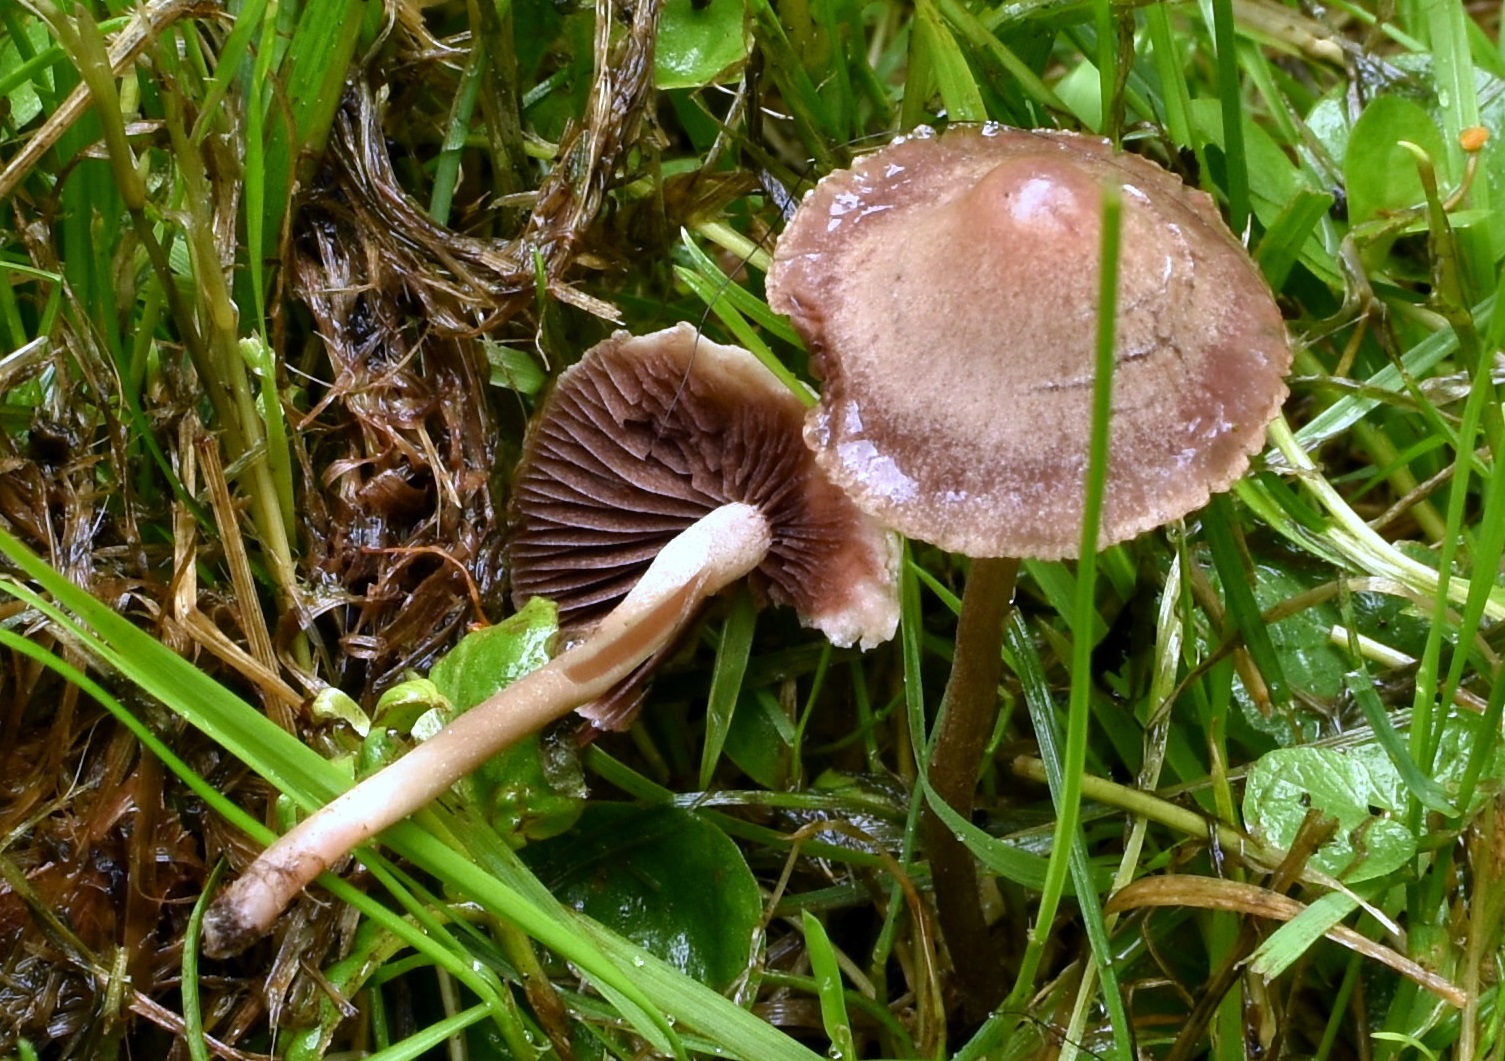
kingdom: Fungi
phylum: Basidiomycota
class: Agaricomycetes
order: Agaricales
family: Bolbitiaceae
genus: Panaeolina
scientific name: Panaeolina foenisecii
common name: høslætsvamp
